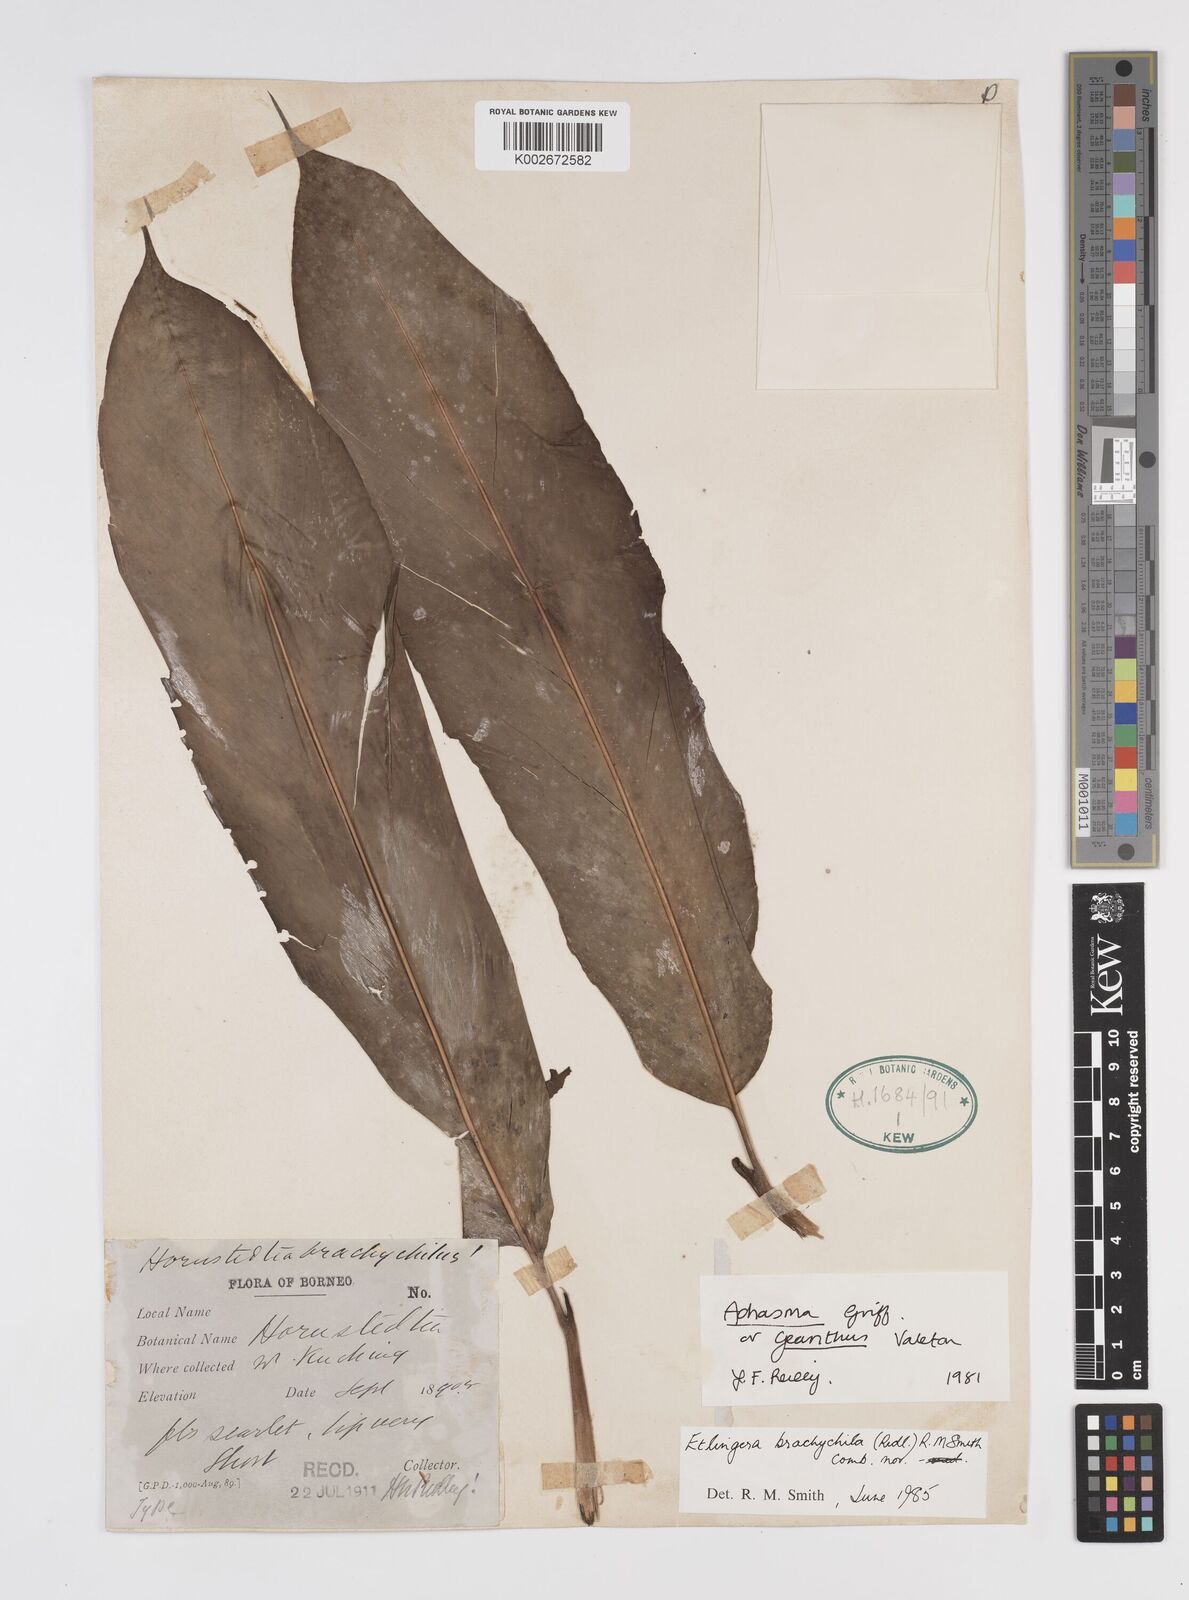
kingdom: Plantae
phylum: Tracheophyta
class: Liliopsida
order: Zingiberales
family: Zingiberaceae
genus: Etlingera
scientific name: Etlingera brachychila
